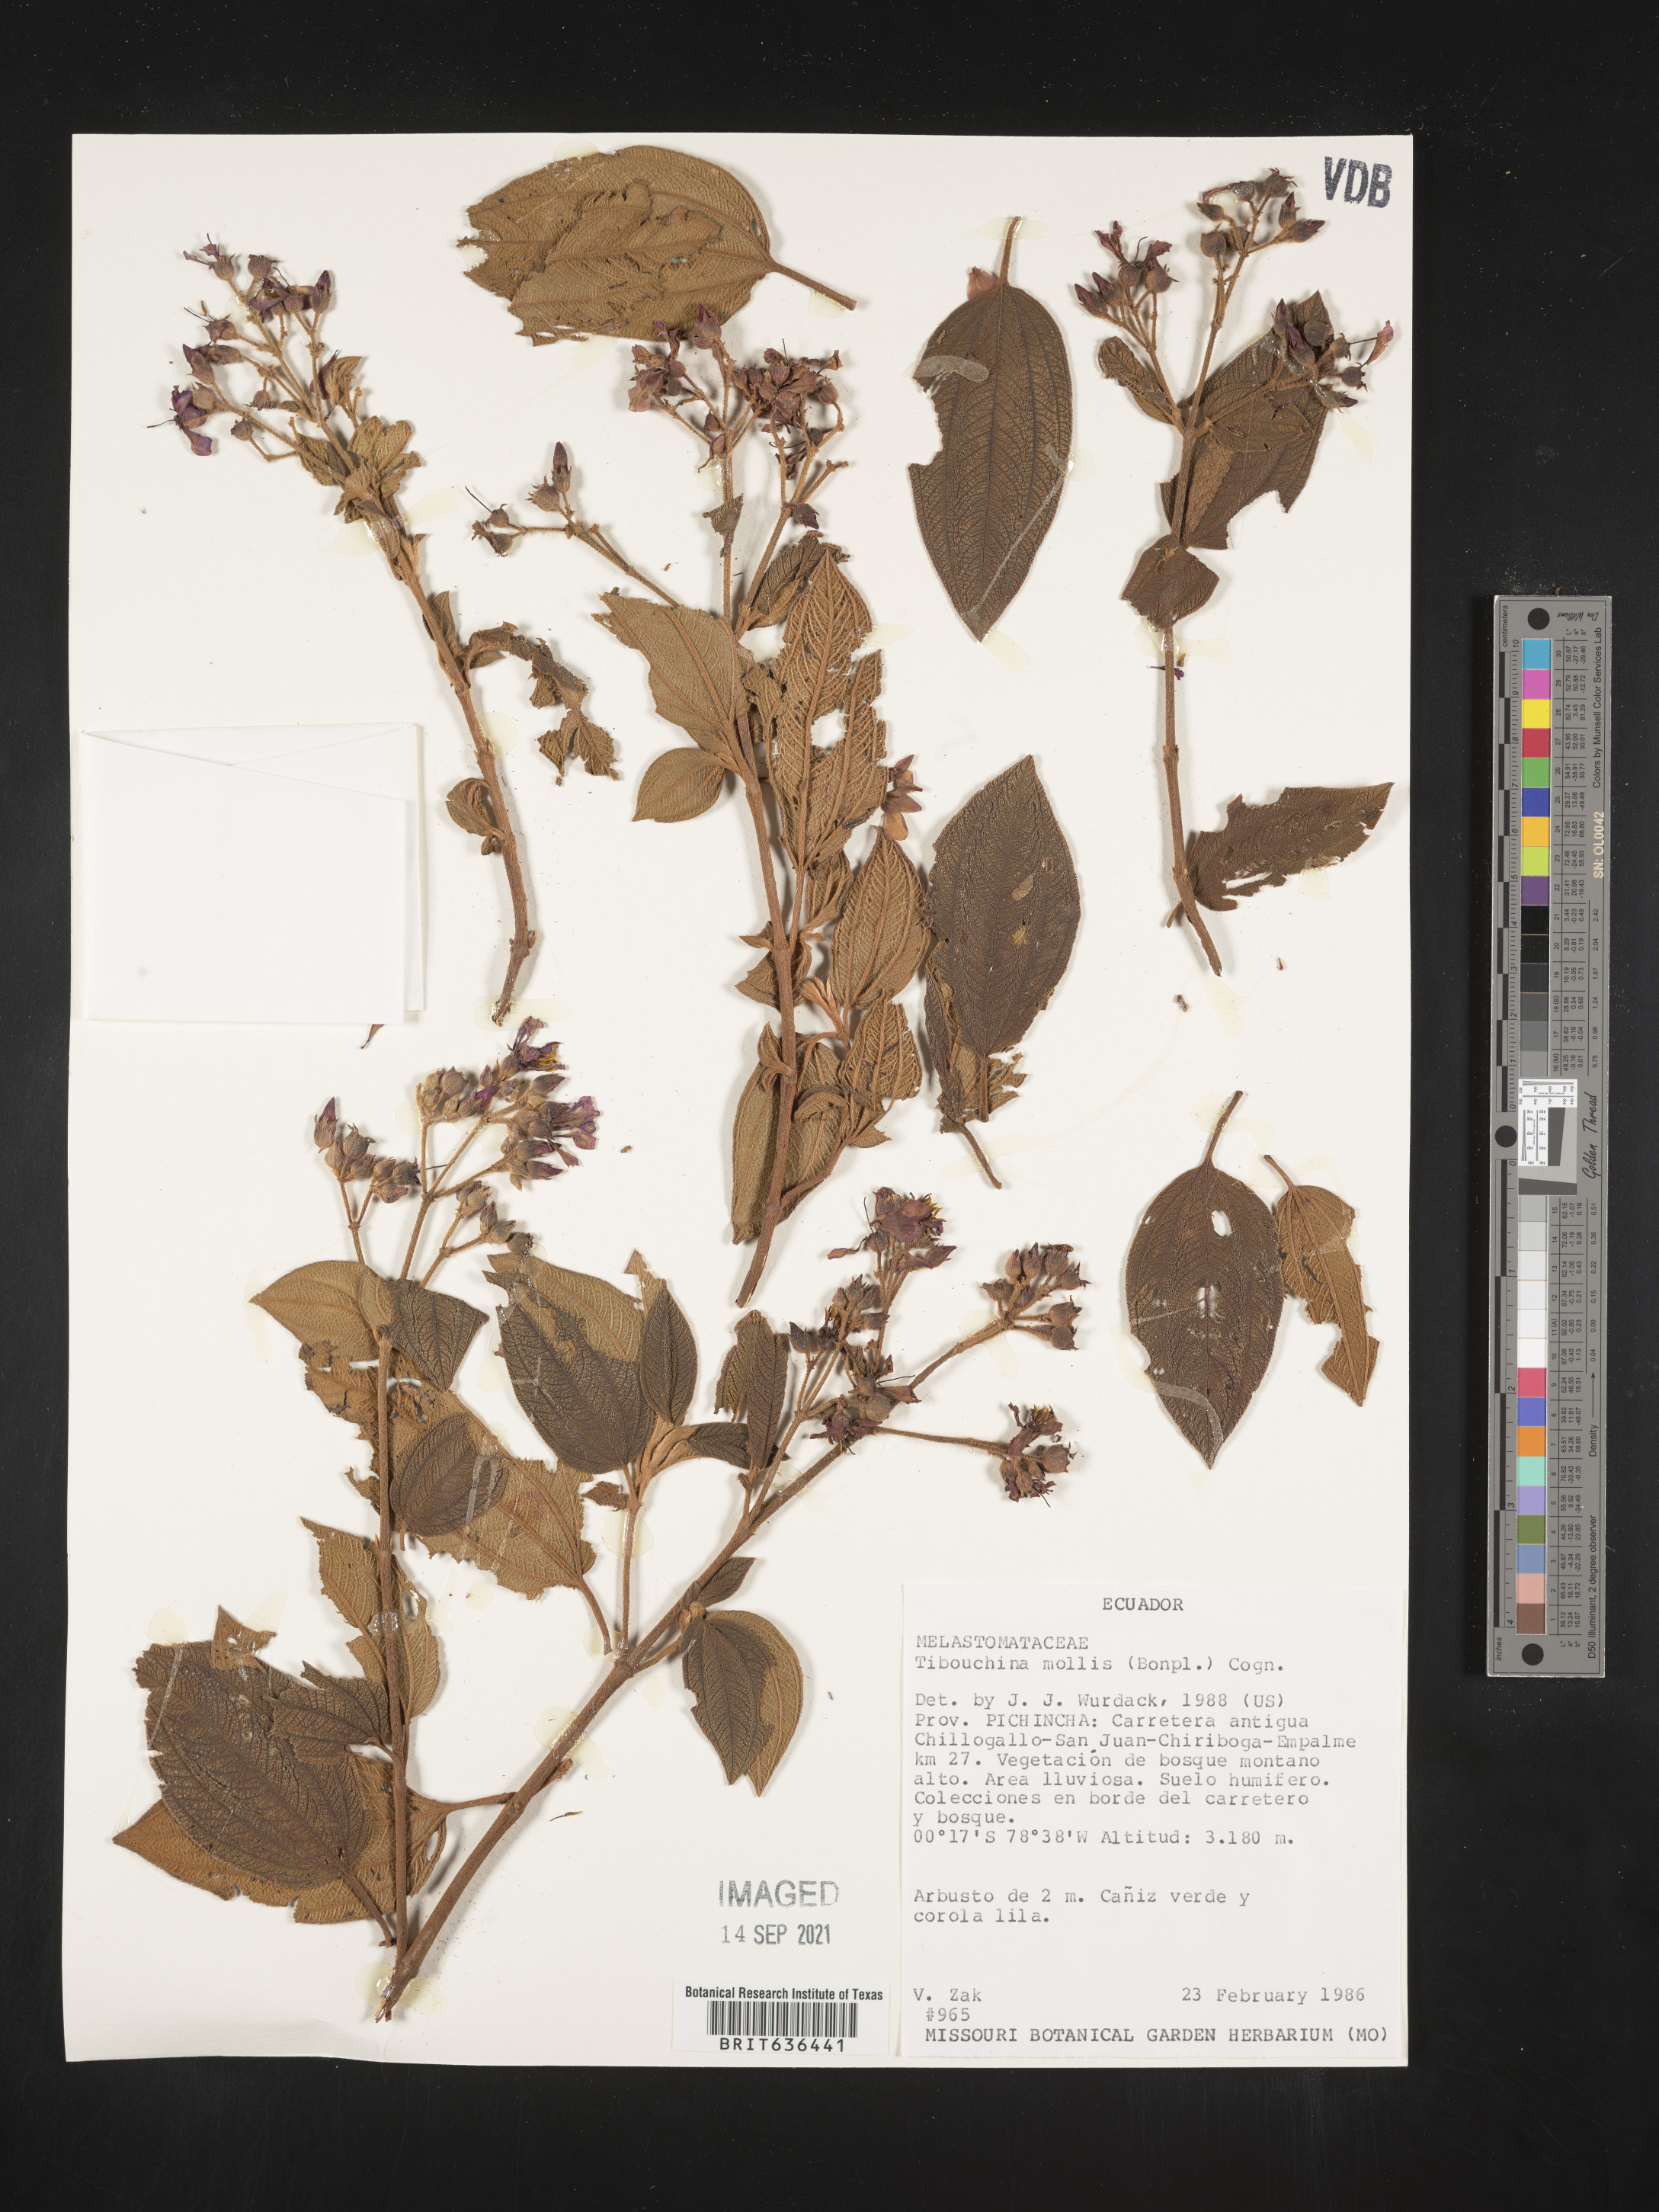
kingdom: Plantae
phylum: Tracheophyta
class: Magnoliopsida
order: Myrtales
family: Melastomataceae
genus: Tibouchina
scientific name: Tibouchina
